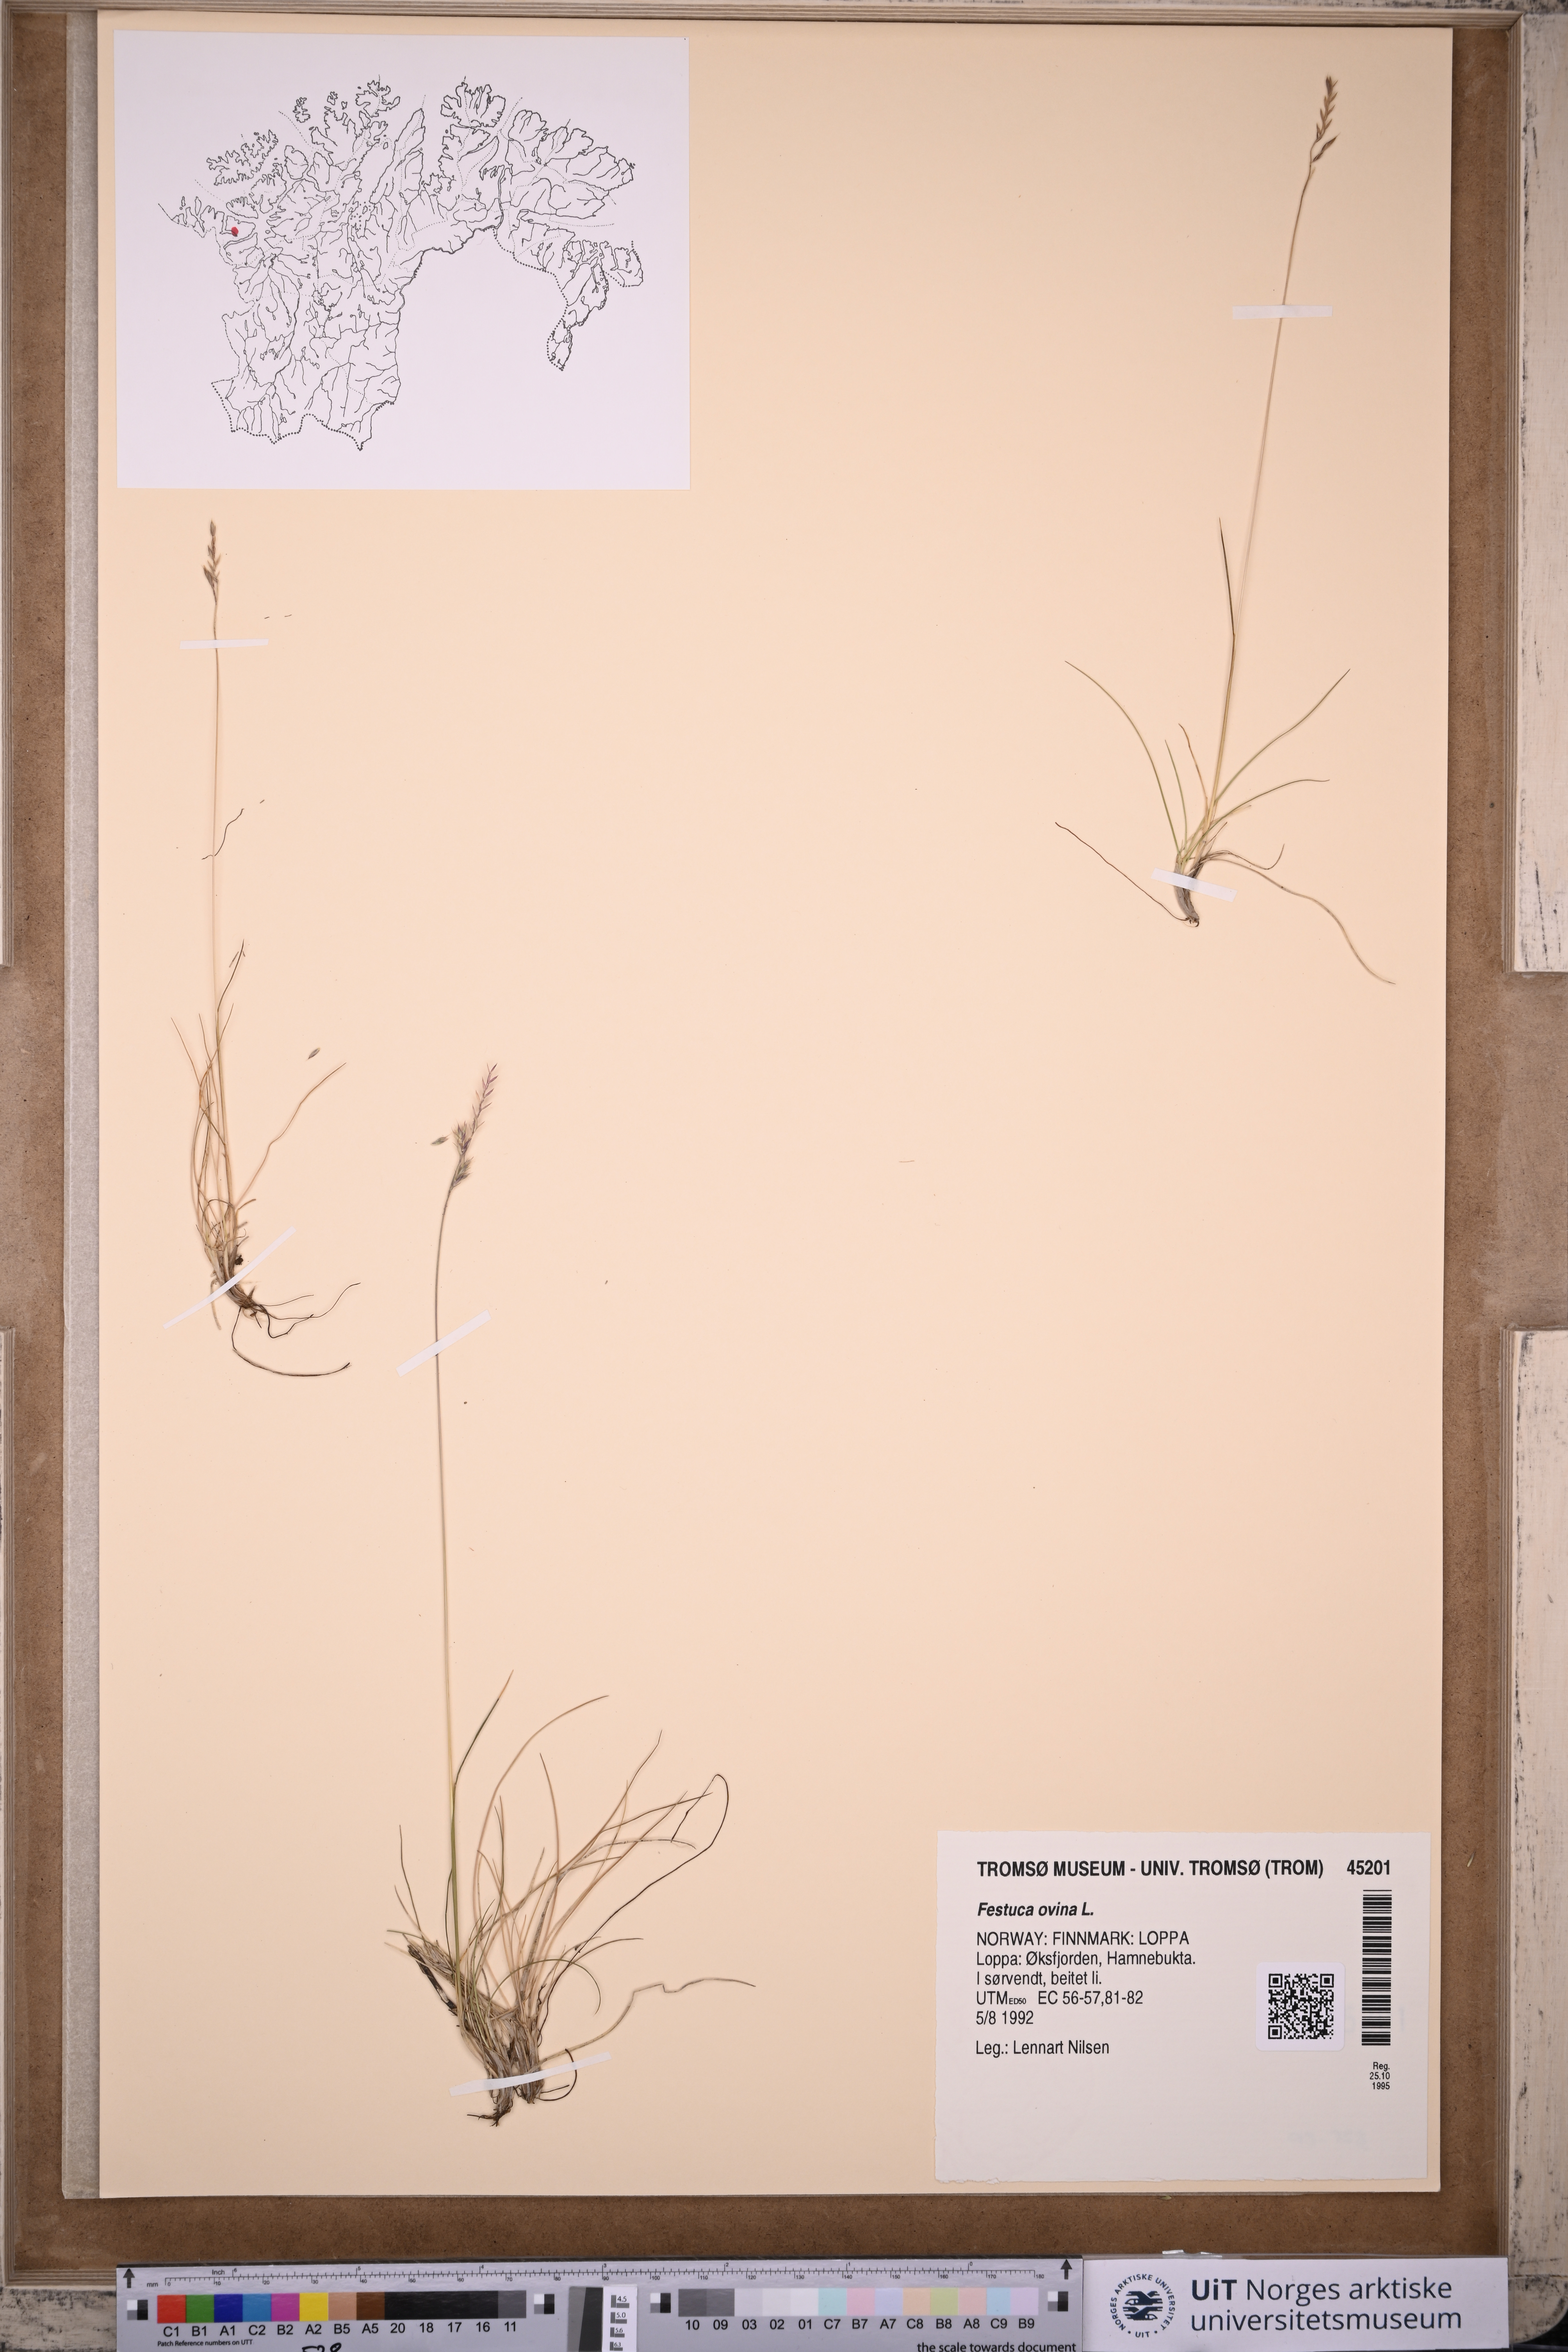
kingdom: Plantae
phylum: Tracheophyta
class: Liliopsida
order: Poales
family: Poaceae
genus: Festuca
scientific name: Festuca ovina
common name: Sheep fescue
